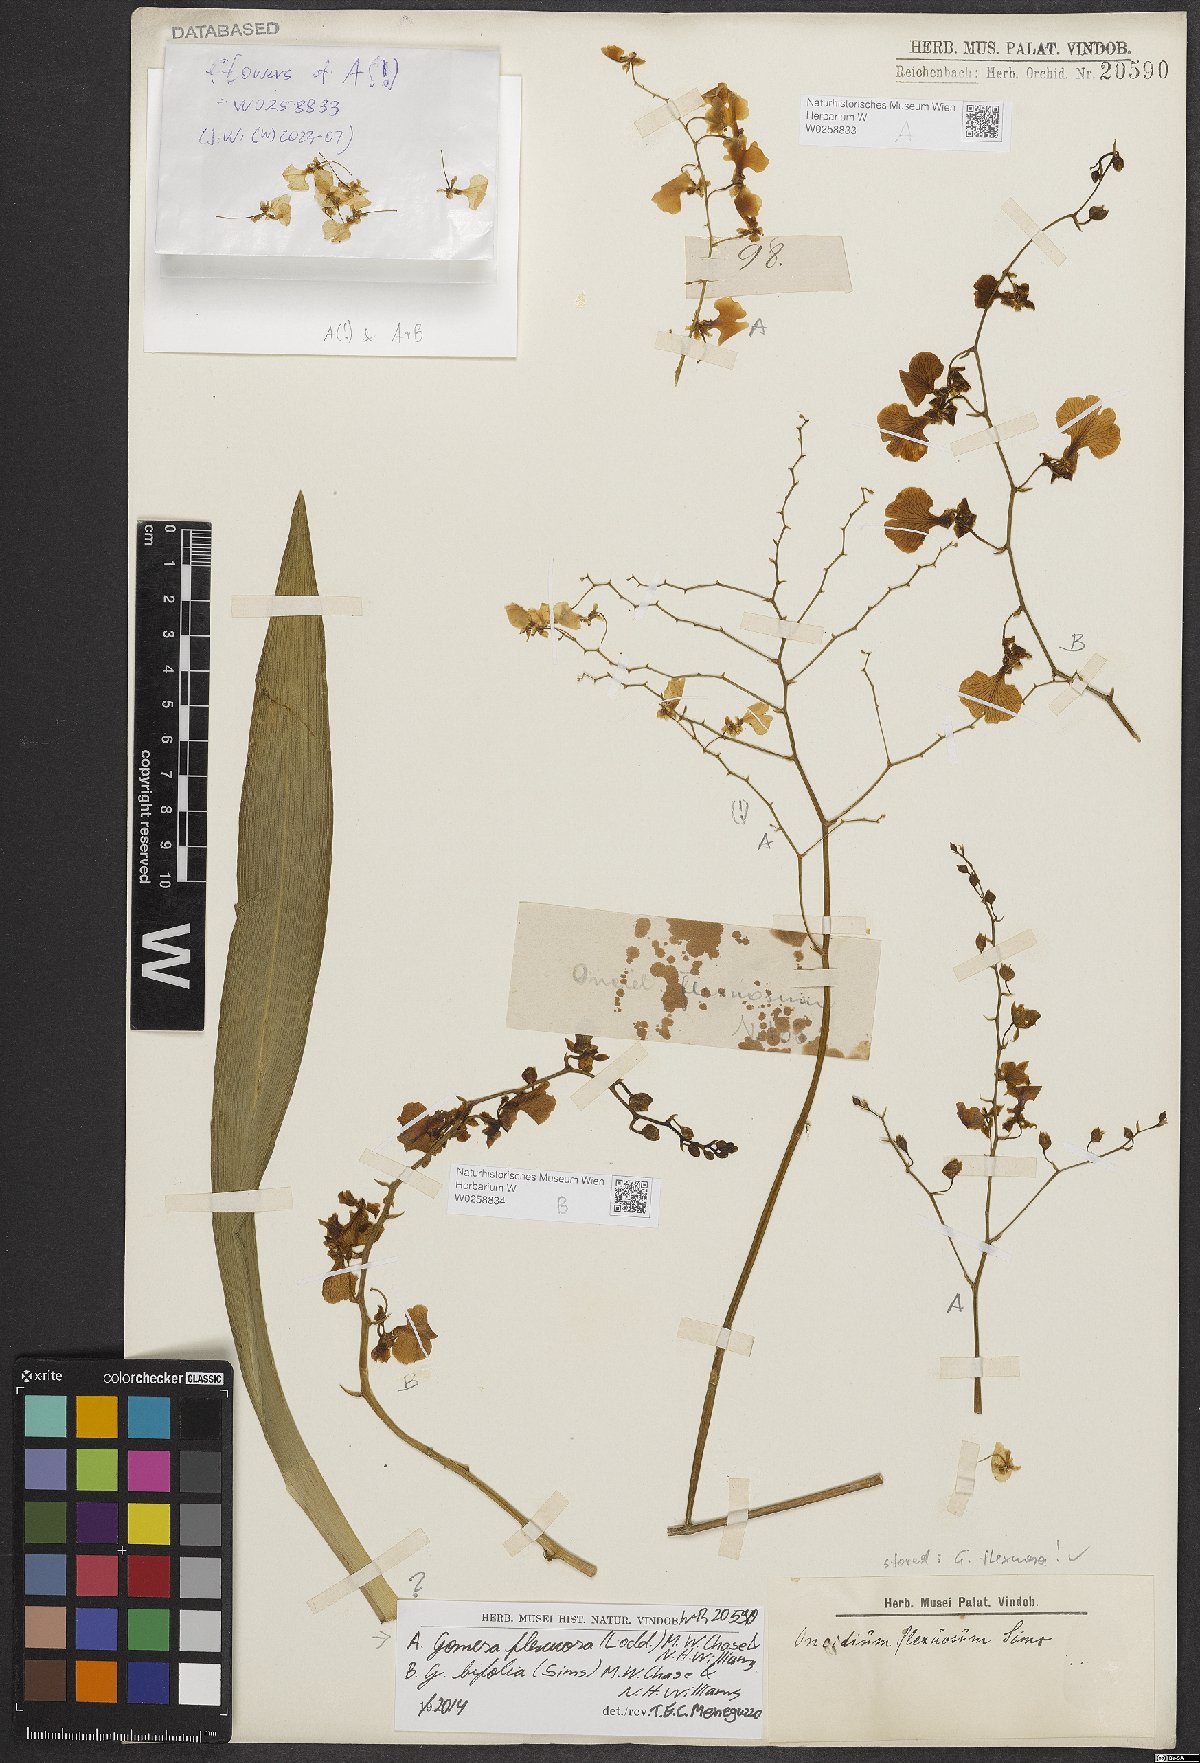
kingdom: Plantae
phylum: Tracheophyta
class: Liliopsida
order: Asparagales
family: Orchidaceae
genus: Gomesa
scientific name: Gomesa flexuosa
